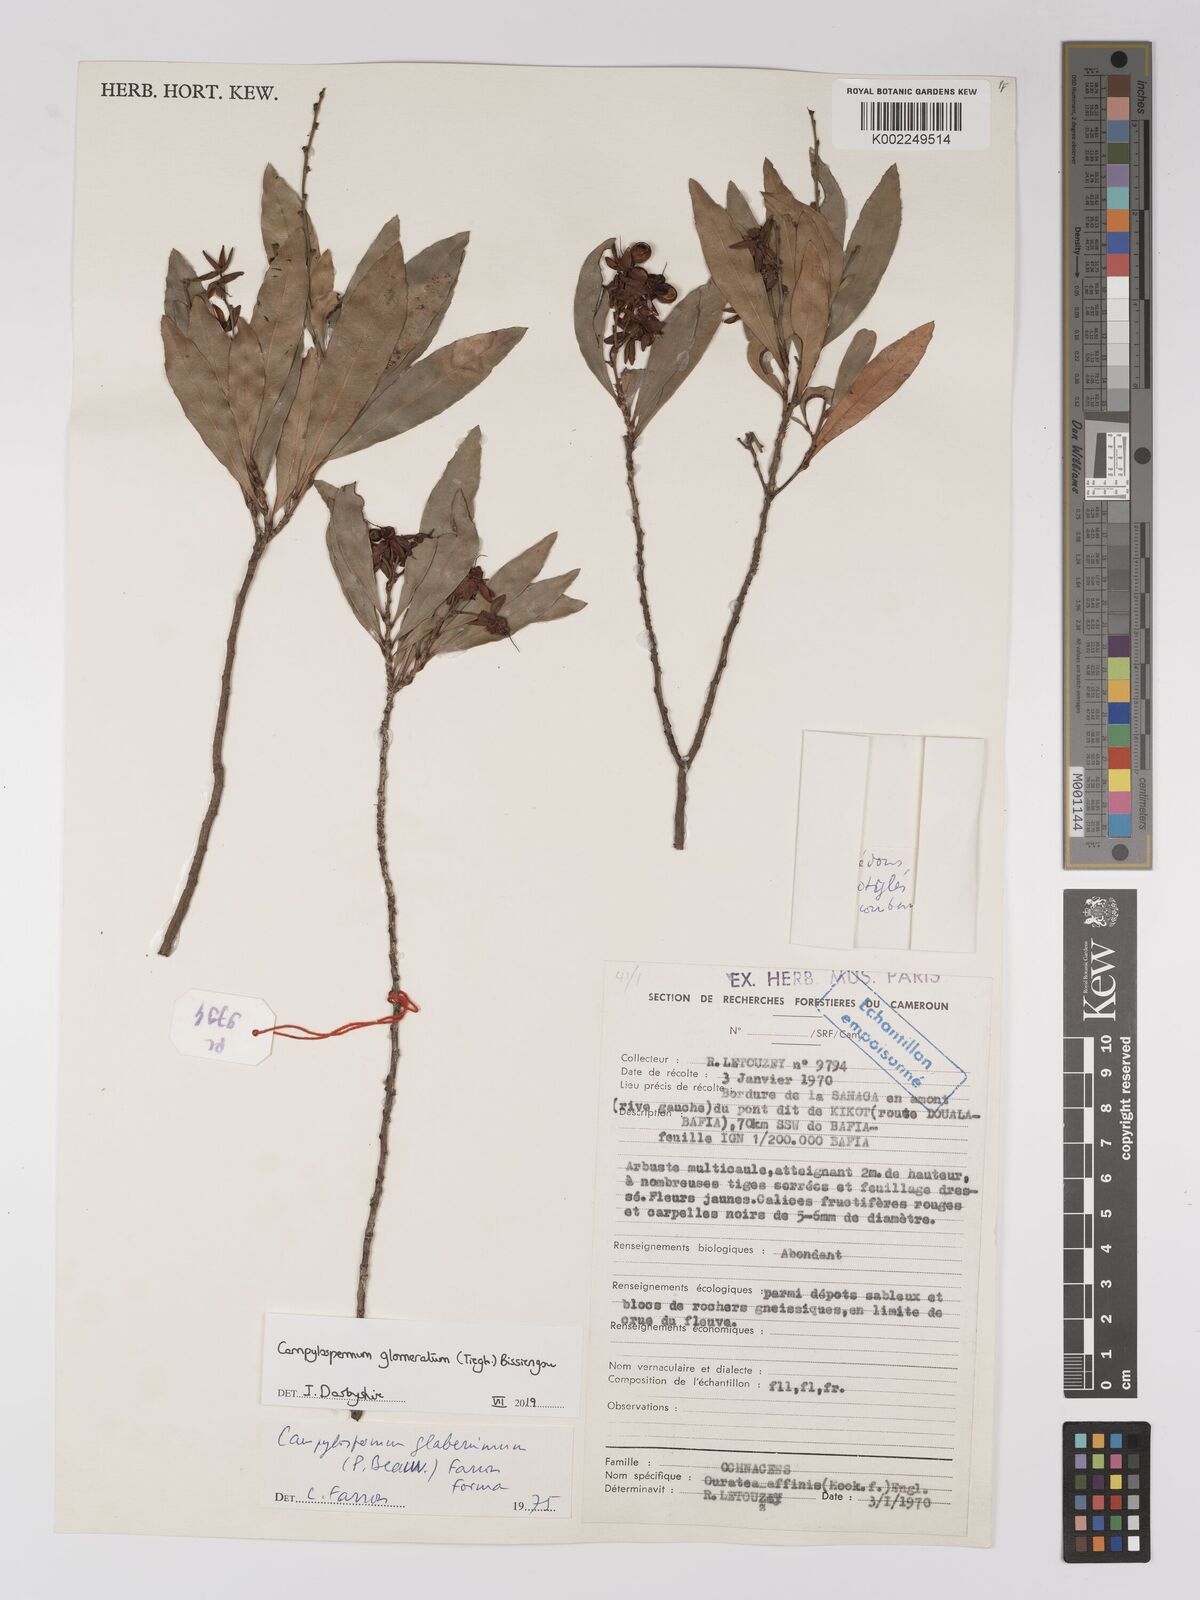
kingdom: Plantae
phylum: Tracheophyta
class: Magnoliopsida
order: Malpighiales
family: Ochnaceae
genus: Campylospermum
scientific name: Campylospermum glomeratum
